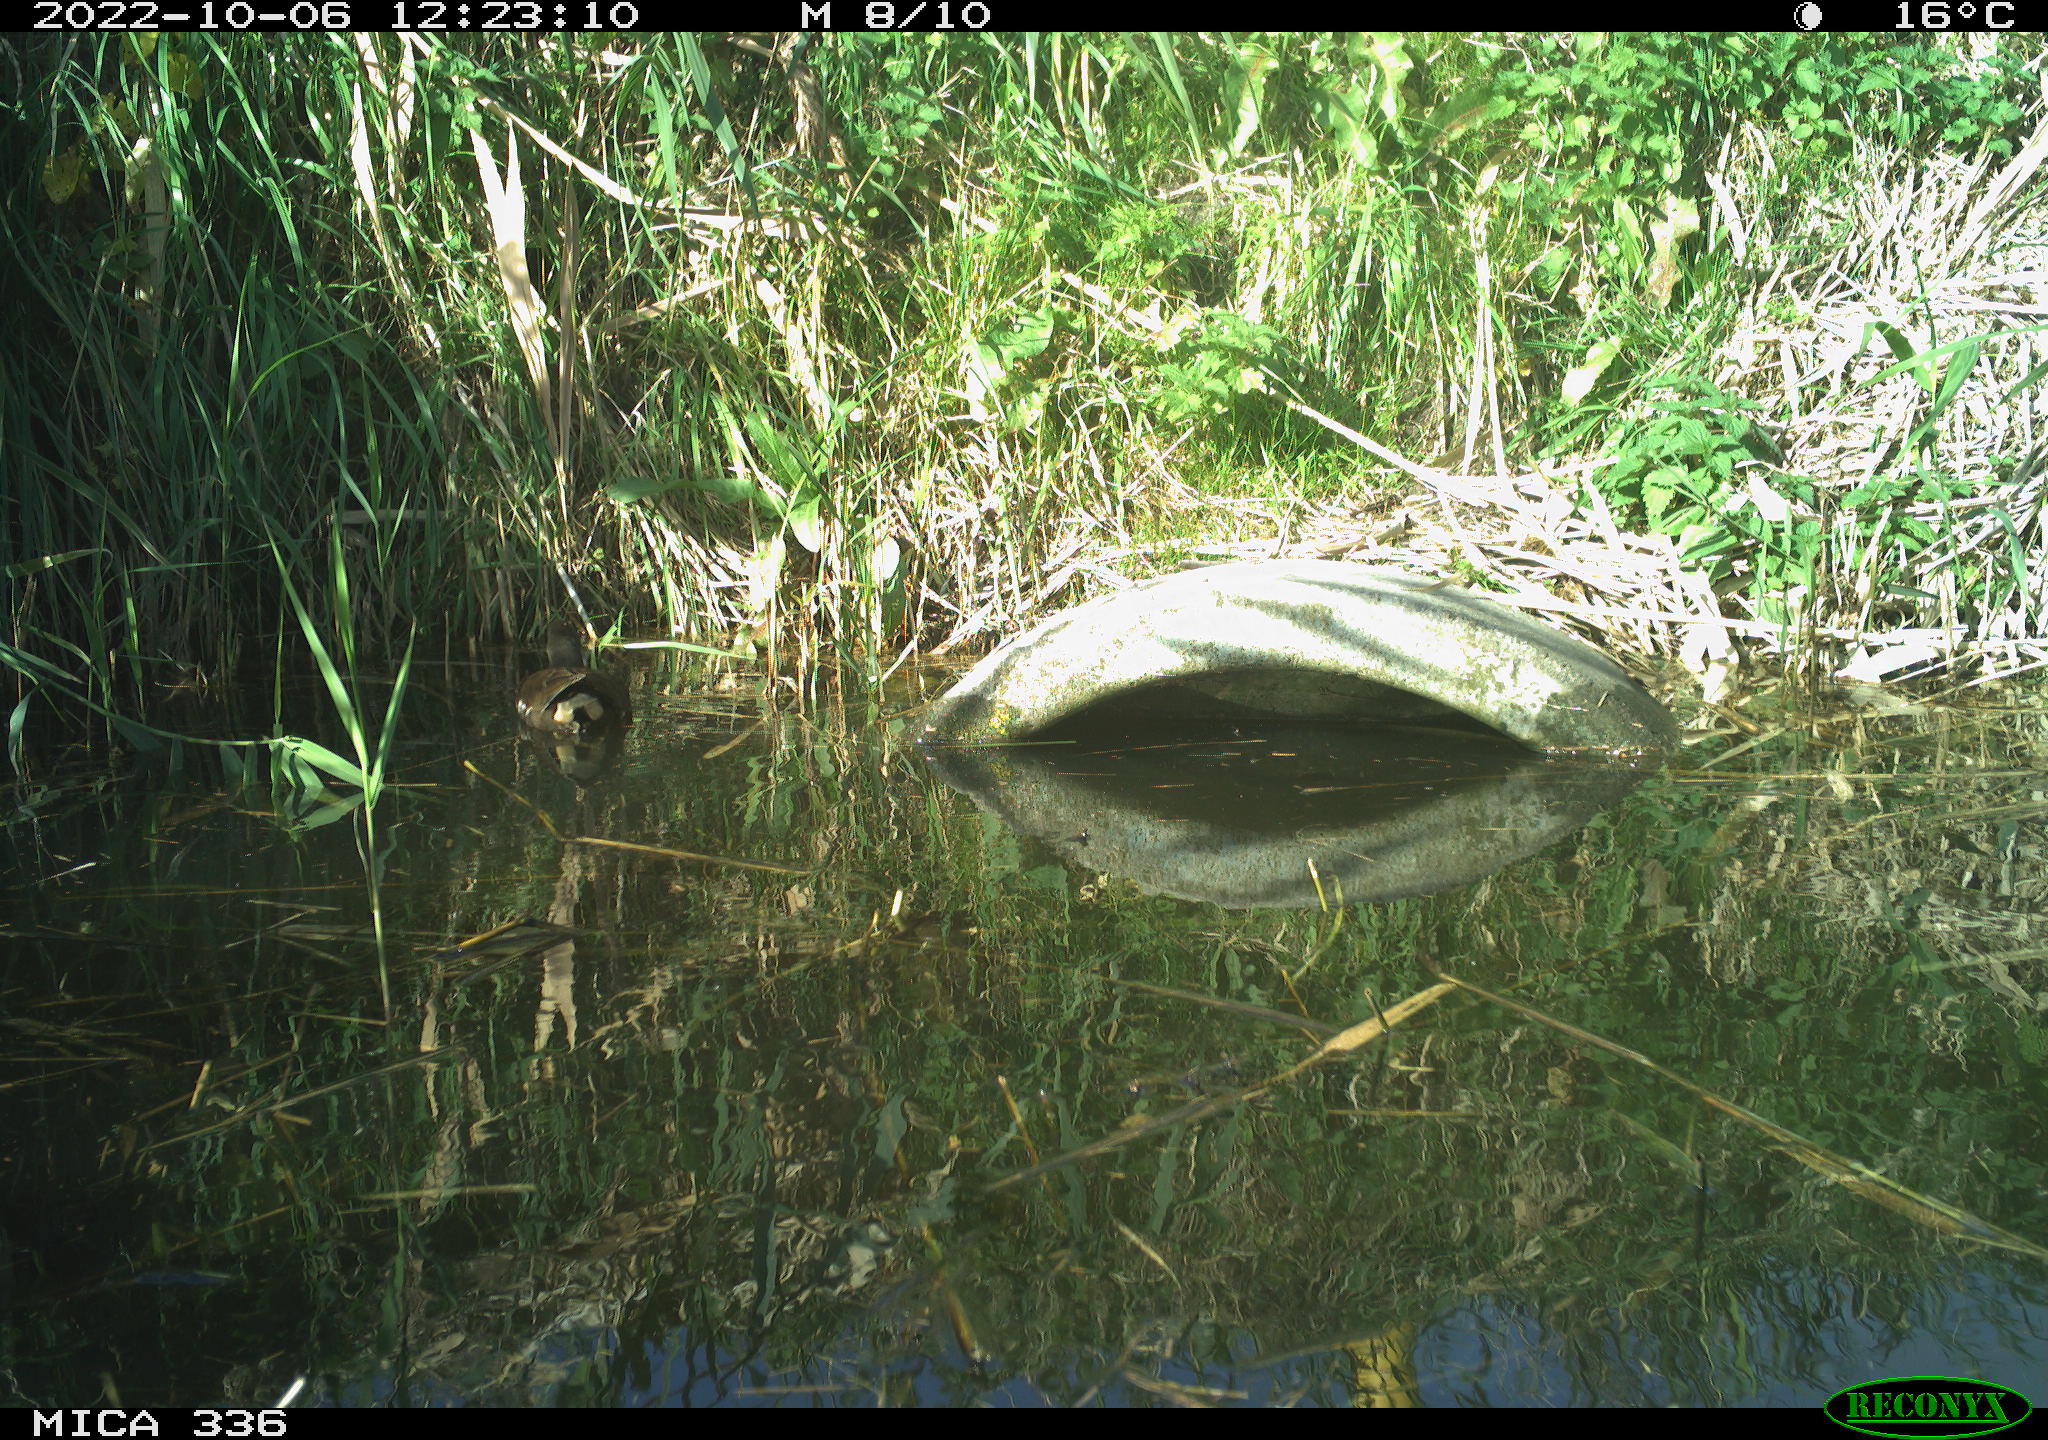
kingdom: Animalia
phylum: Chordata
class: Aves
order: Gruiformes
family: Rallidae
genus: Gallinula
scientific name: Gallinula chloropus
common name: Common moorhen
